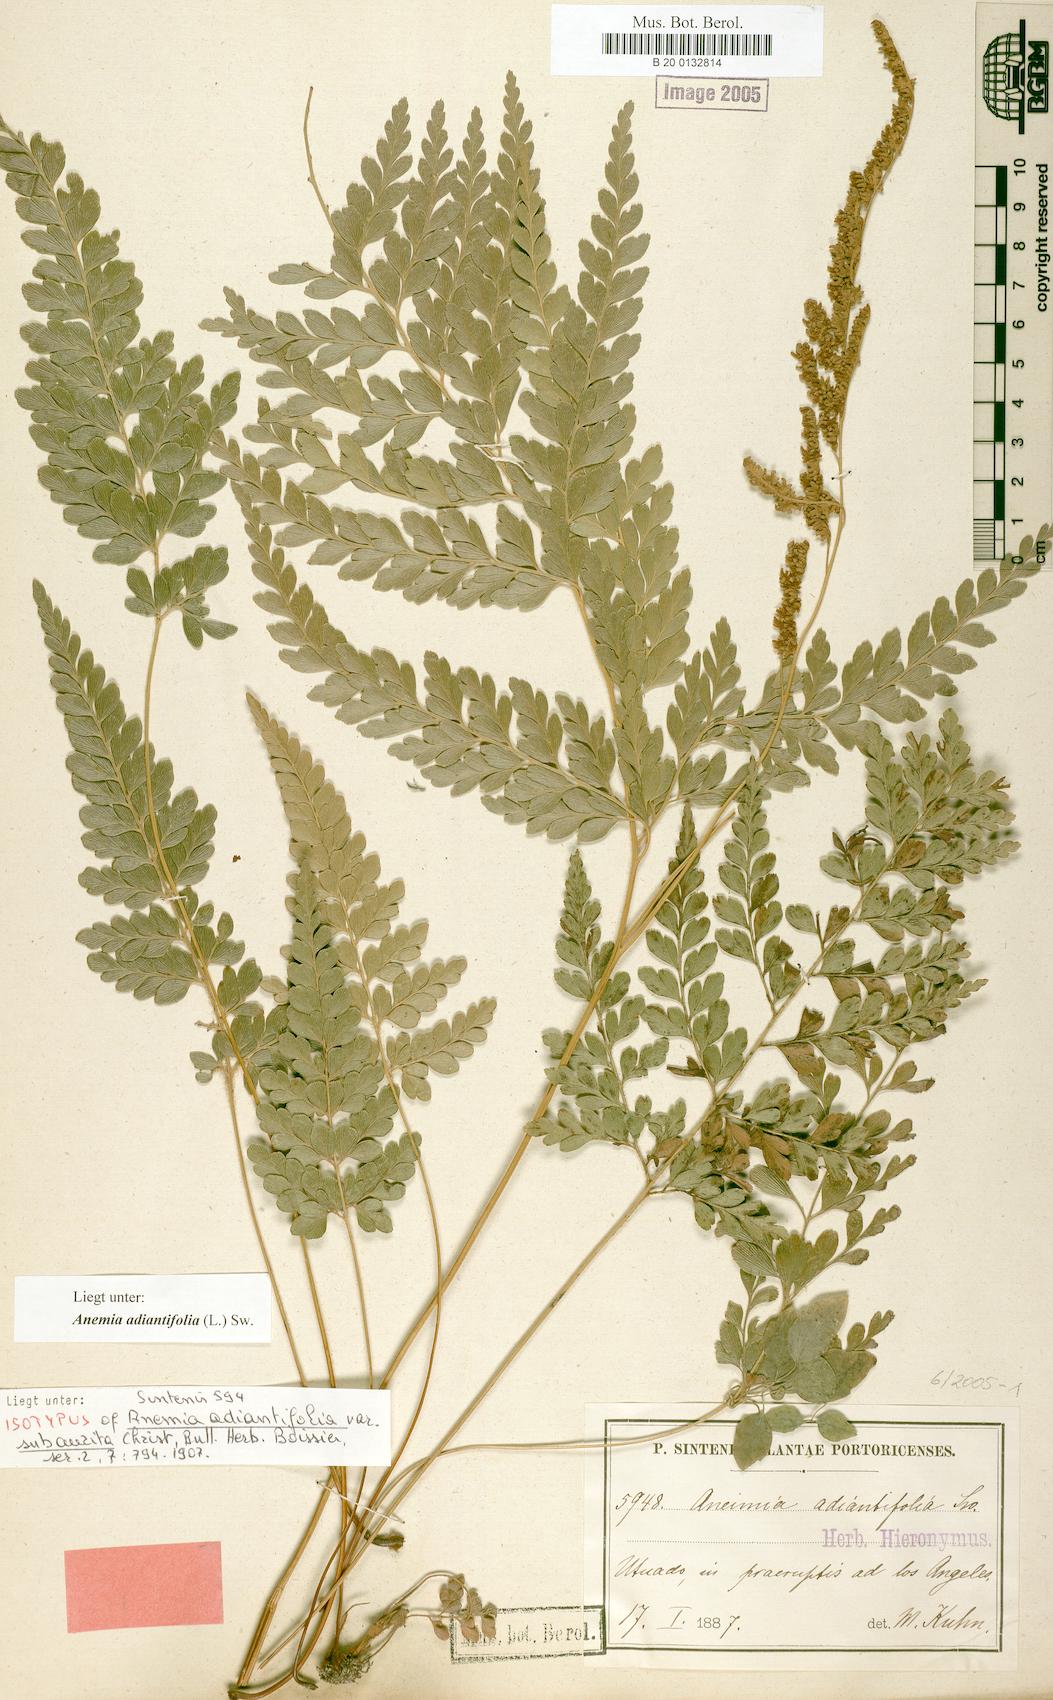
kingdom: Plantae
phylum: Tracheophyta
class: Polypodiopsida
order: Schizaeales
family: Anemiaceae
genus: Anemia
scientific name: Anemia adiantifolia
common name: Pine fern
